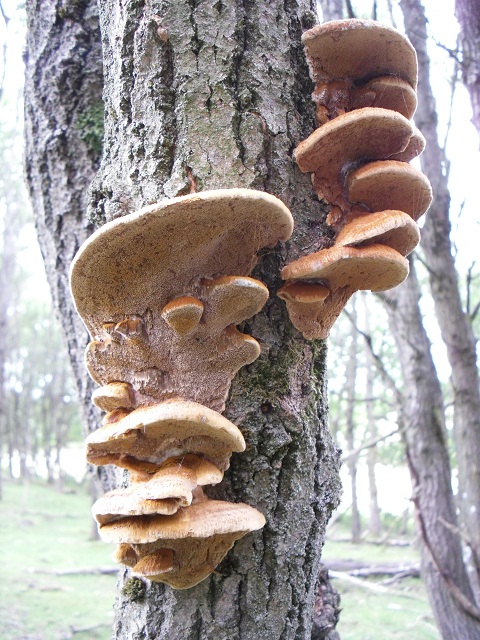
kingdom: Fungi
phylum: Basidiomycota
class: Agaricomycetes
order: Hymenochaetales
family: Hymenochaetaceae
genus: Inocutis
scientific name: Inocutis rheades
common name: ræve-spejlporesvamp
